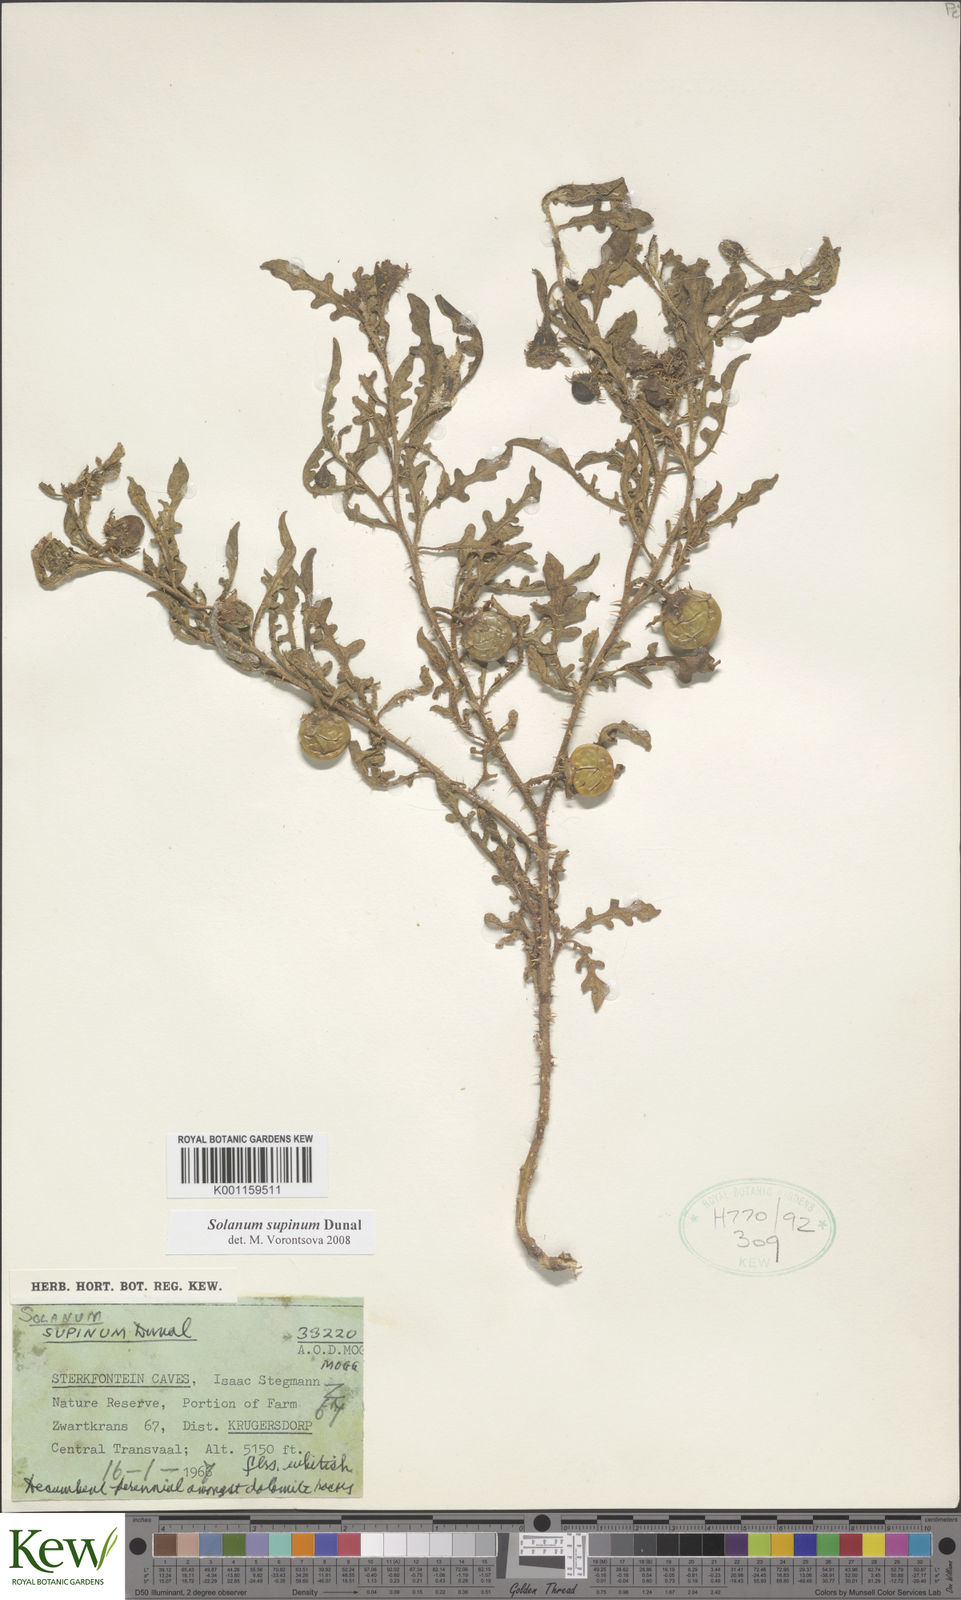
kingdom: Plantae
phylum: Tracheophyta
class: Magnoliopsida
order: Solanales
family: Solanaceae
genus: Solanum
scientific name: Solanum supinum
